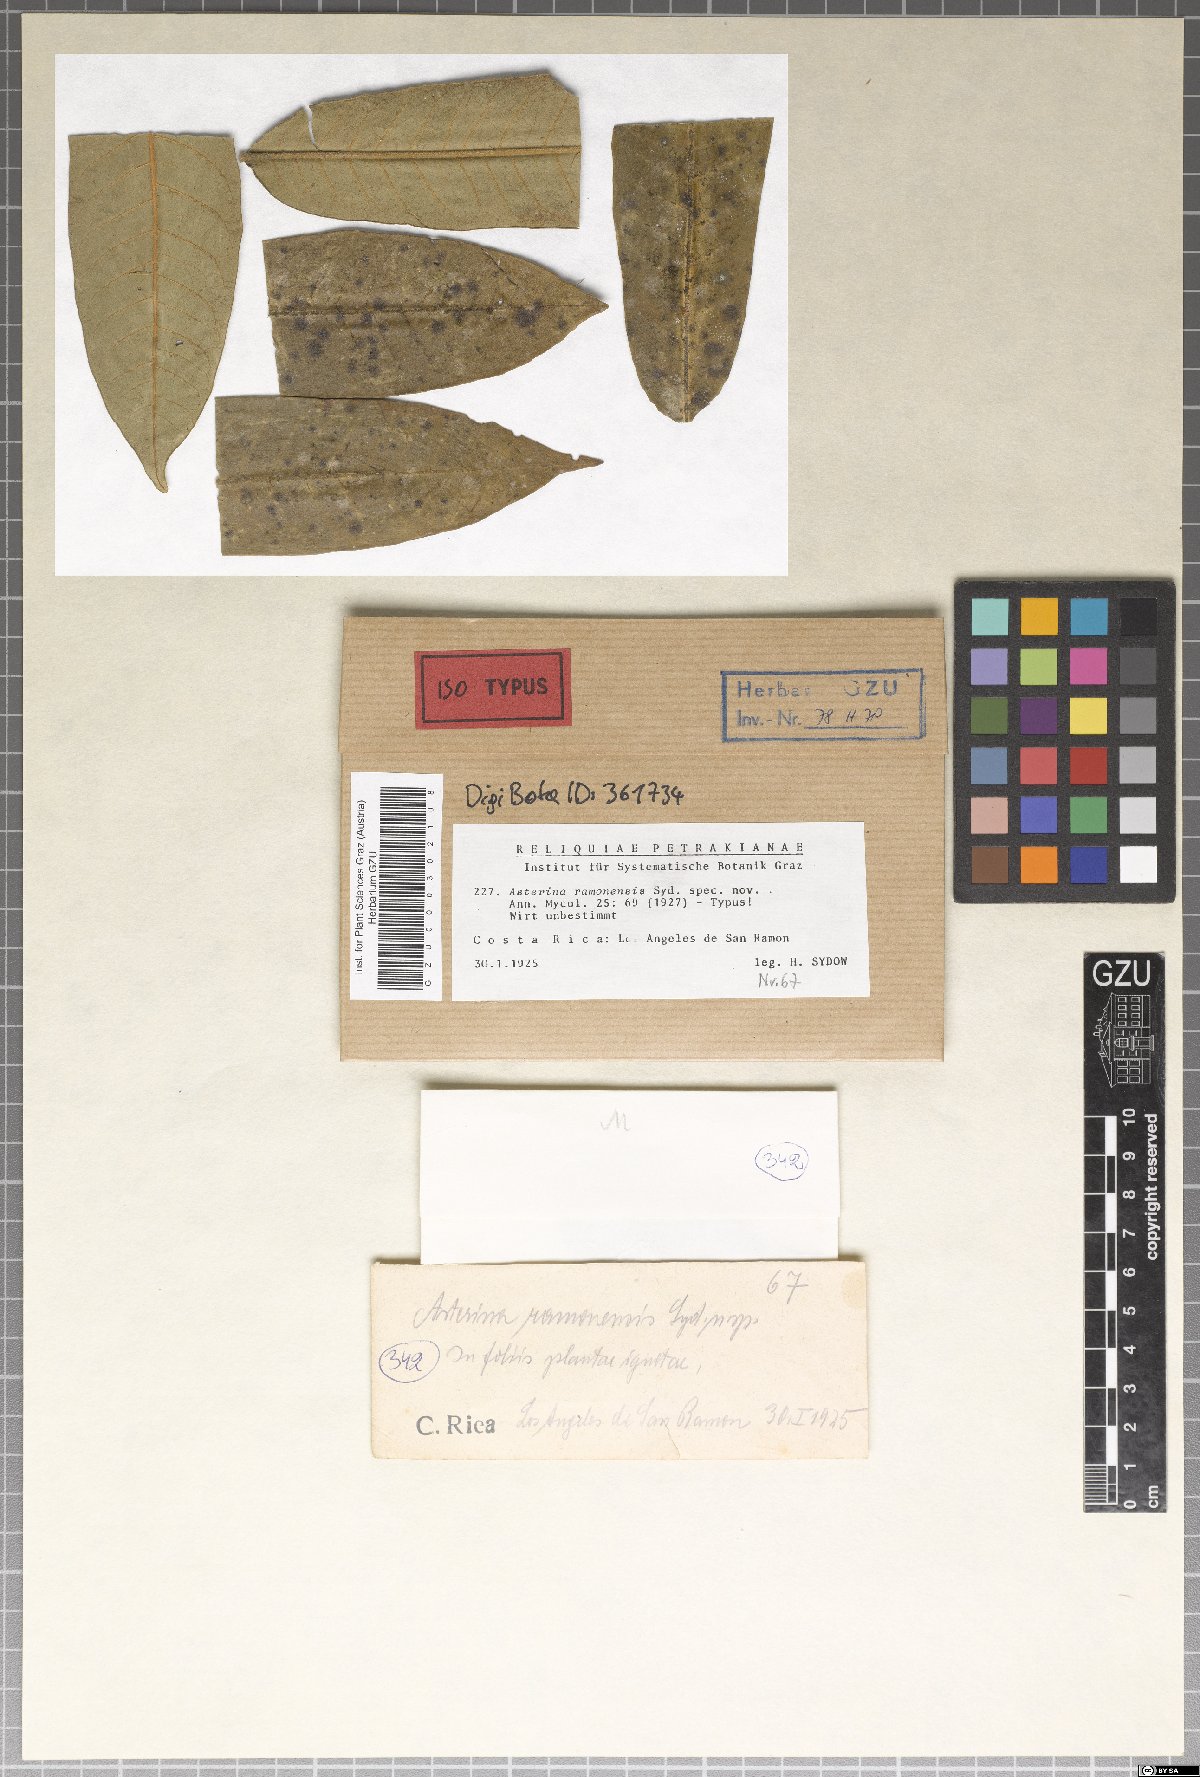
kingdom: Fungi
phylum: Ascomycota
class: Dothideomycetes
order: Asterinales
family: Asterinaceae
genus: Asterina
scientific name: Asterina ramonensis
